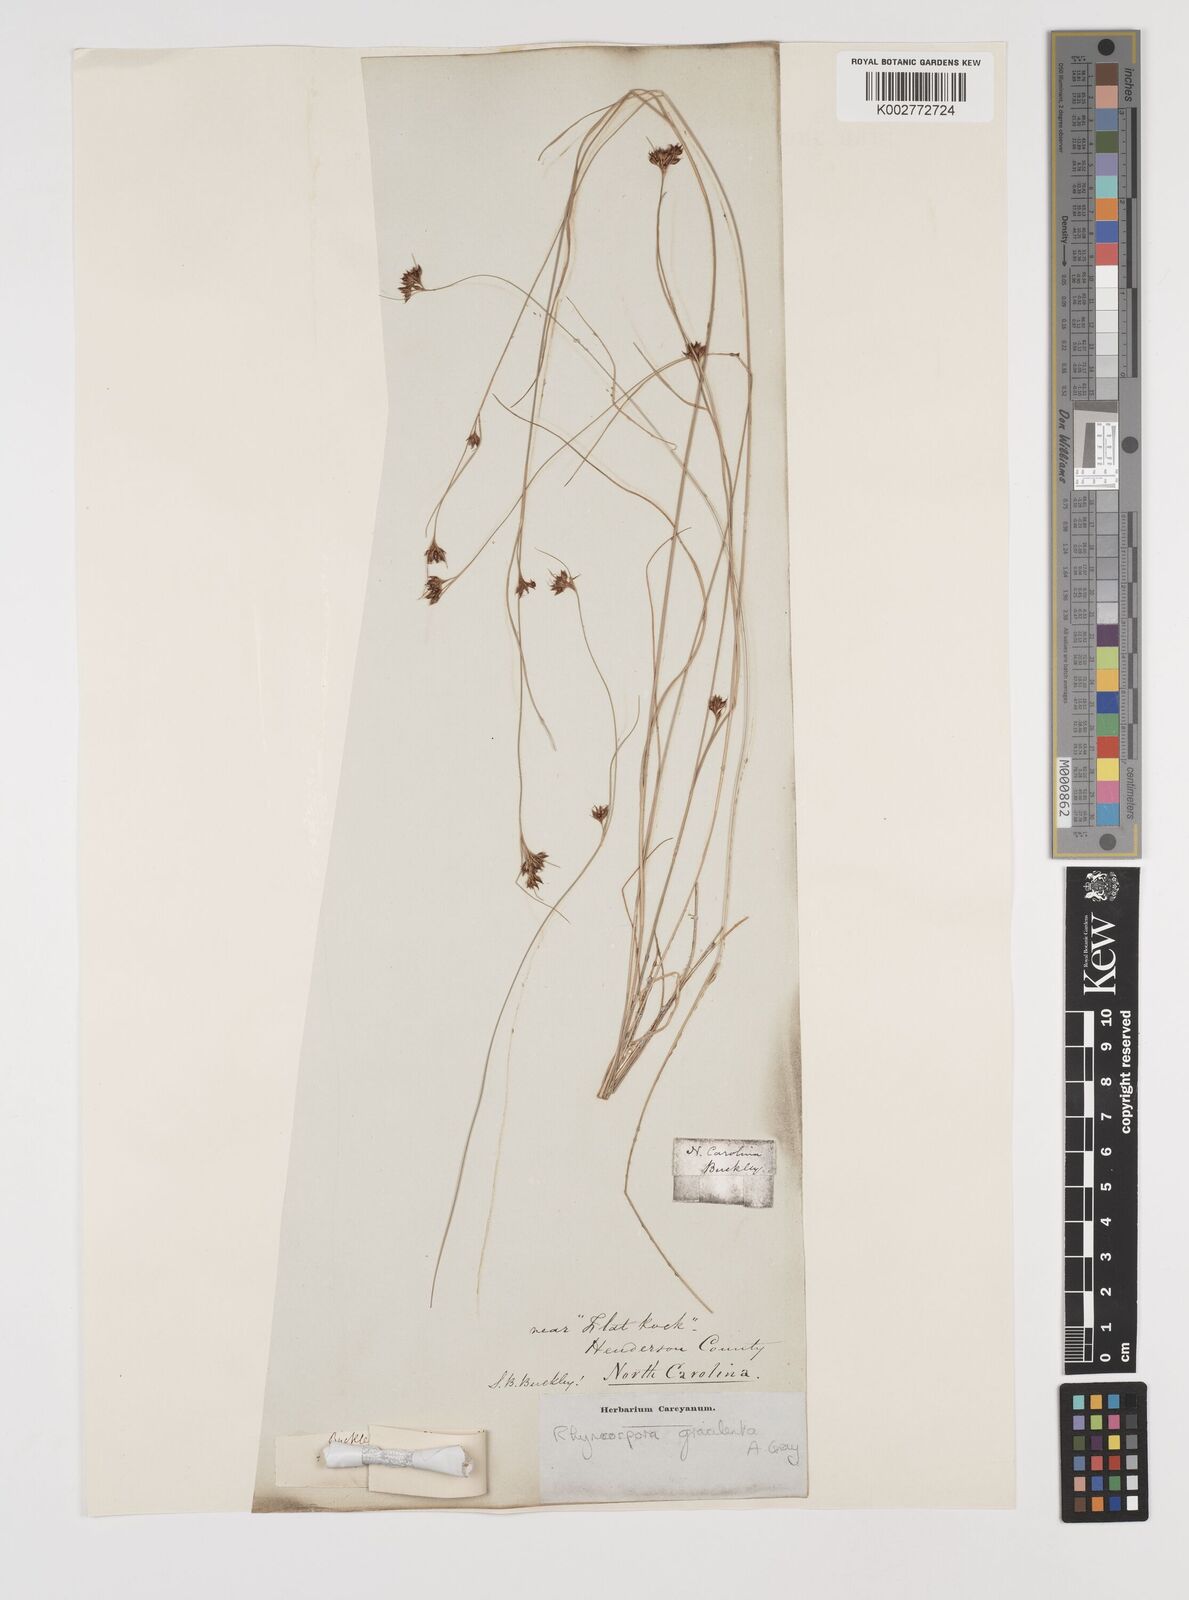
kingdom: Plantae
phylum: Tracheophyta
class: Liliopsida
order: Poales
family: Cyperaceae
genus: Rhynchospora
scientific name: Rhynchospora gracilenta
